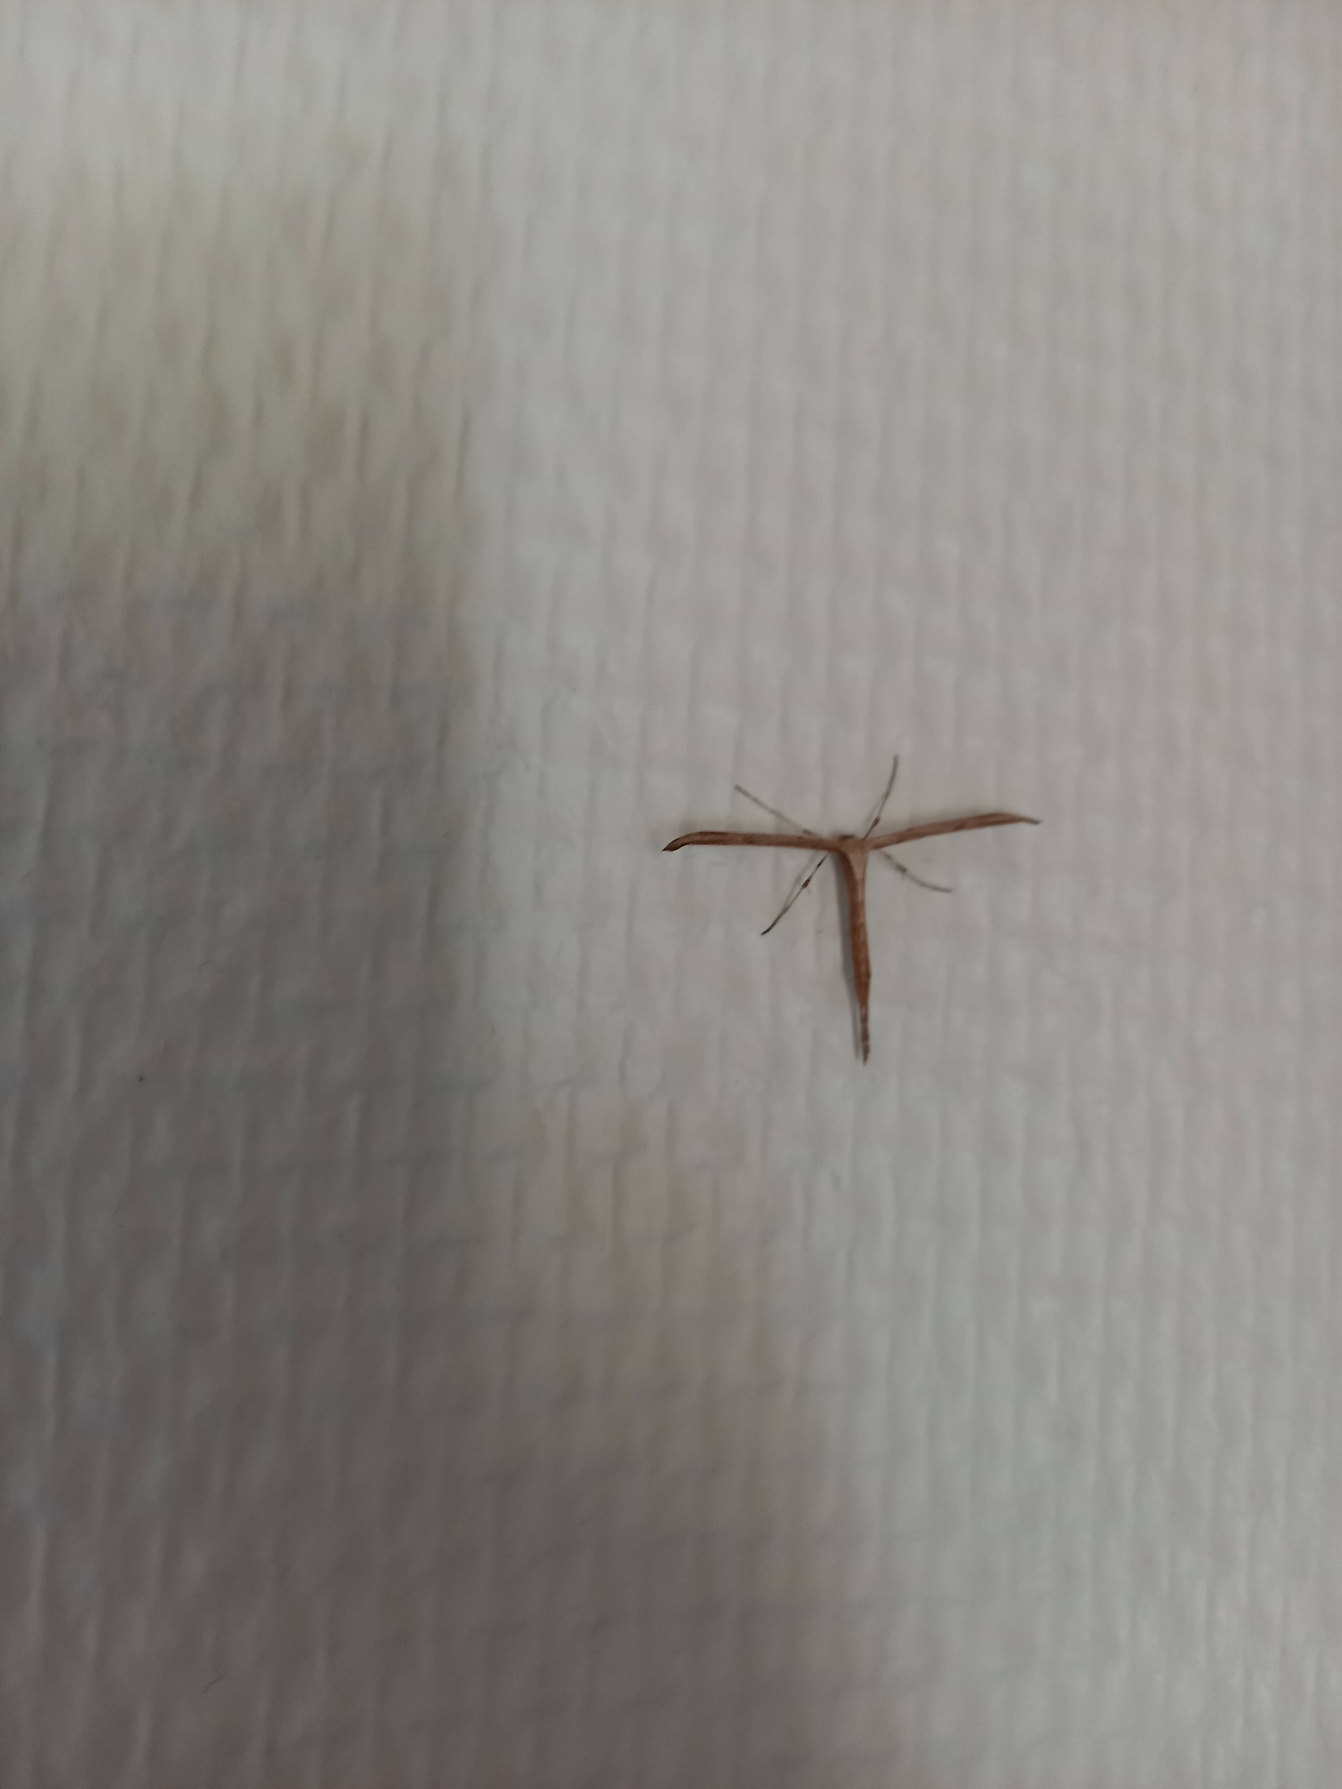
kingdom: Animalia
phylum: Arthropoda
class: Insecta
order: Lepidoptera
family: Pterophoridae
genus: Emmelina
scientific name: Emmelina monodactyla
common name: Snerlefjermøl
